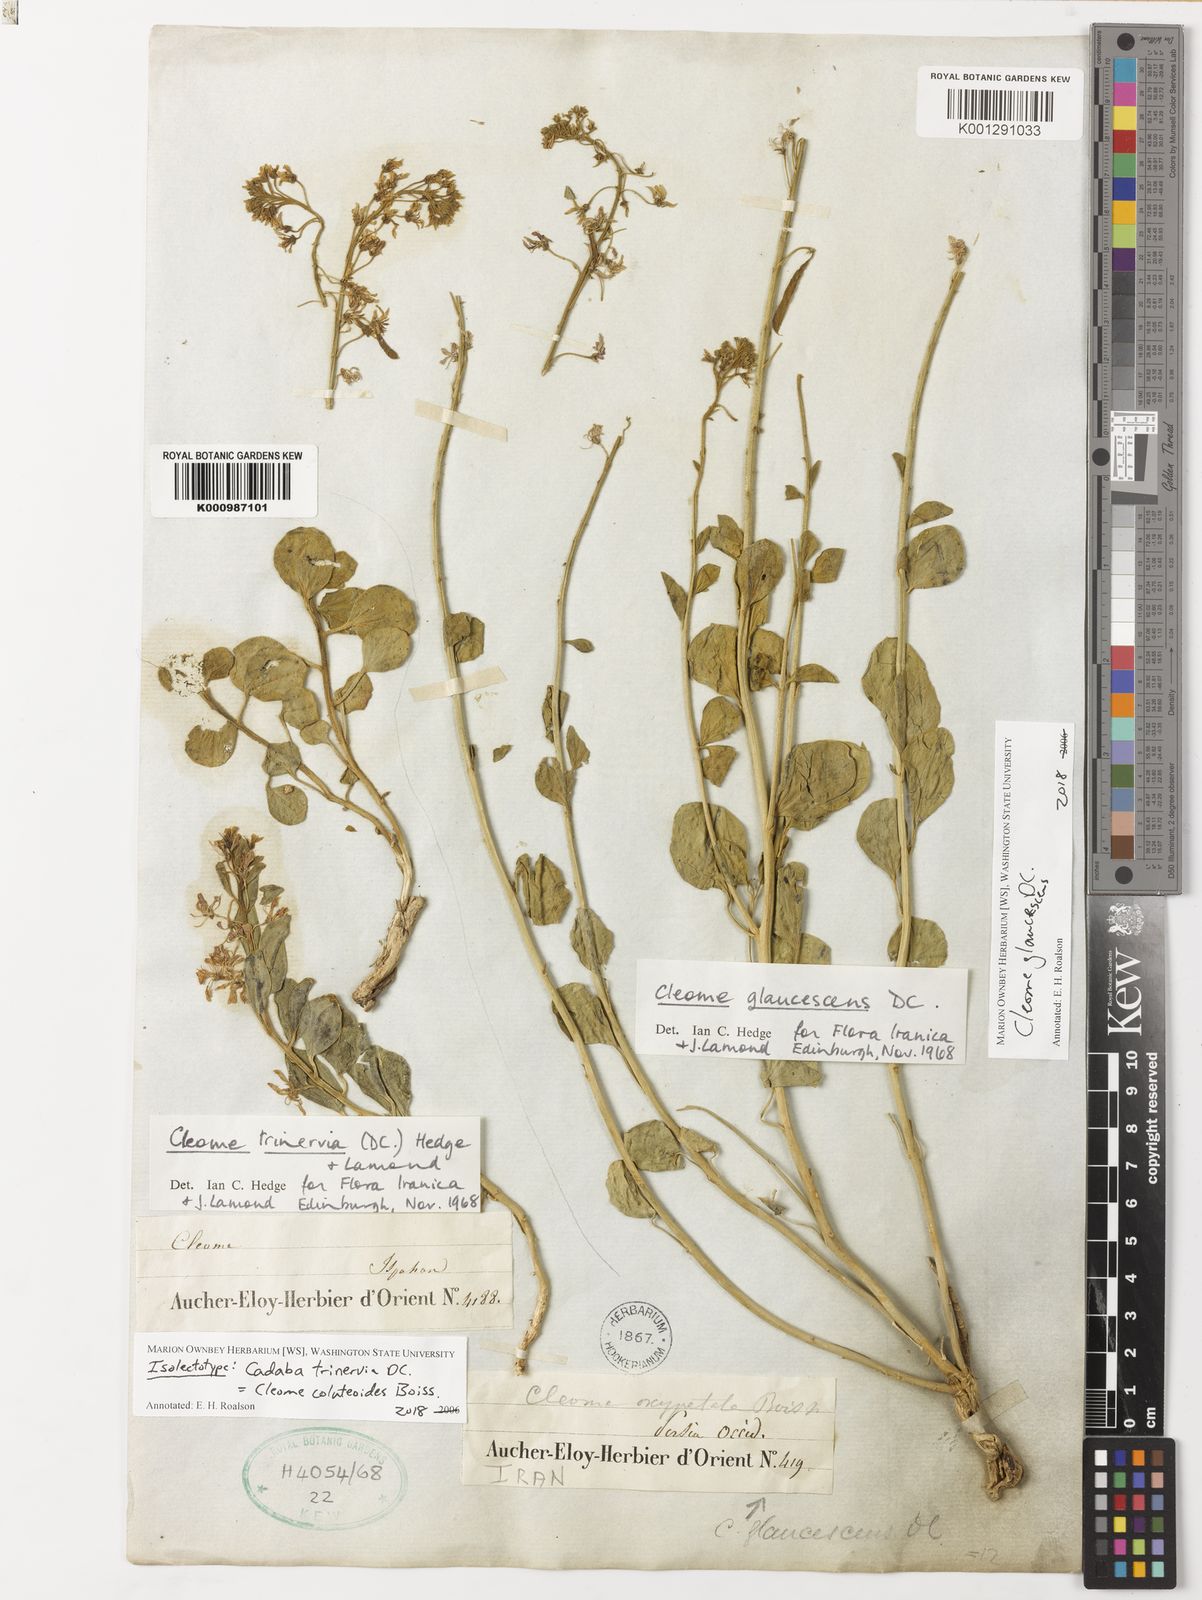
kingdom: Plantae
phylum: Tracheophyta
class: Magnoliopsida
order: Brassicales
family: Cleomaceae
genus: Cleome
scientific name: Cleome glaucescens
